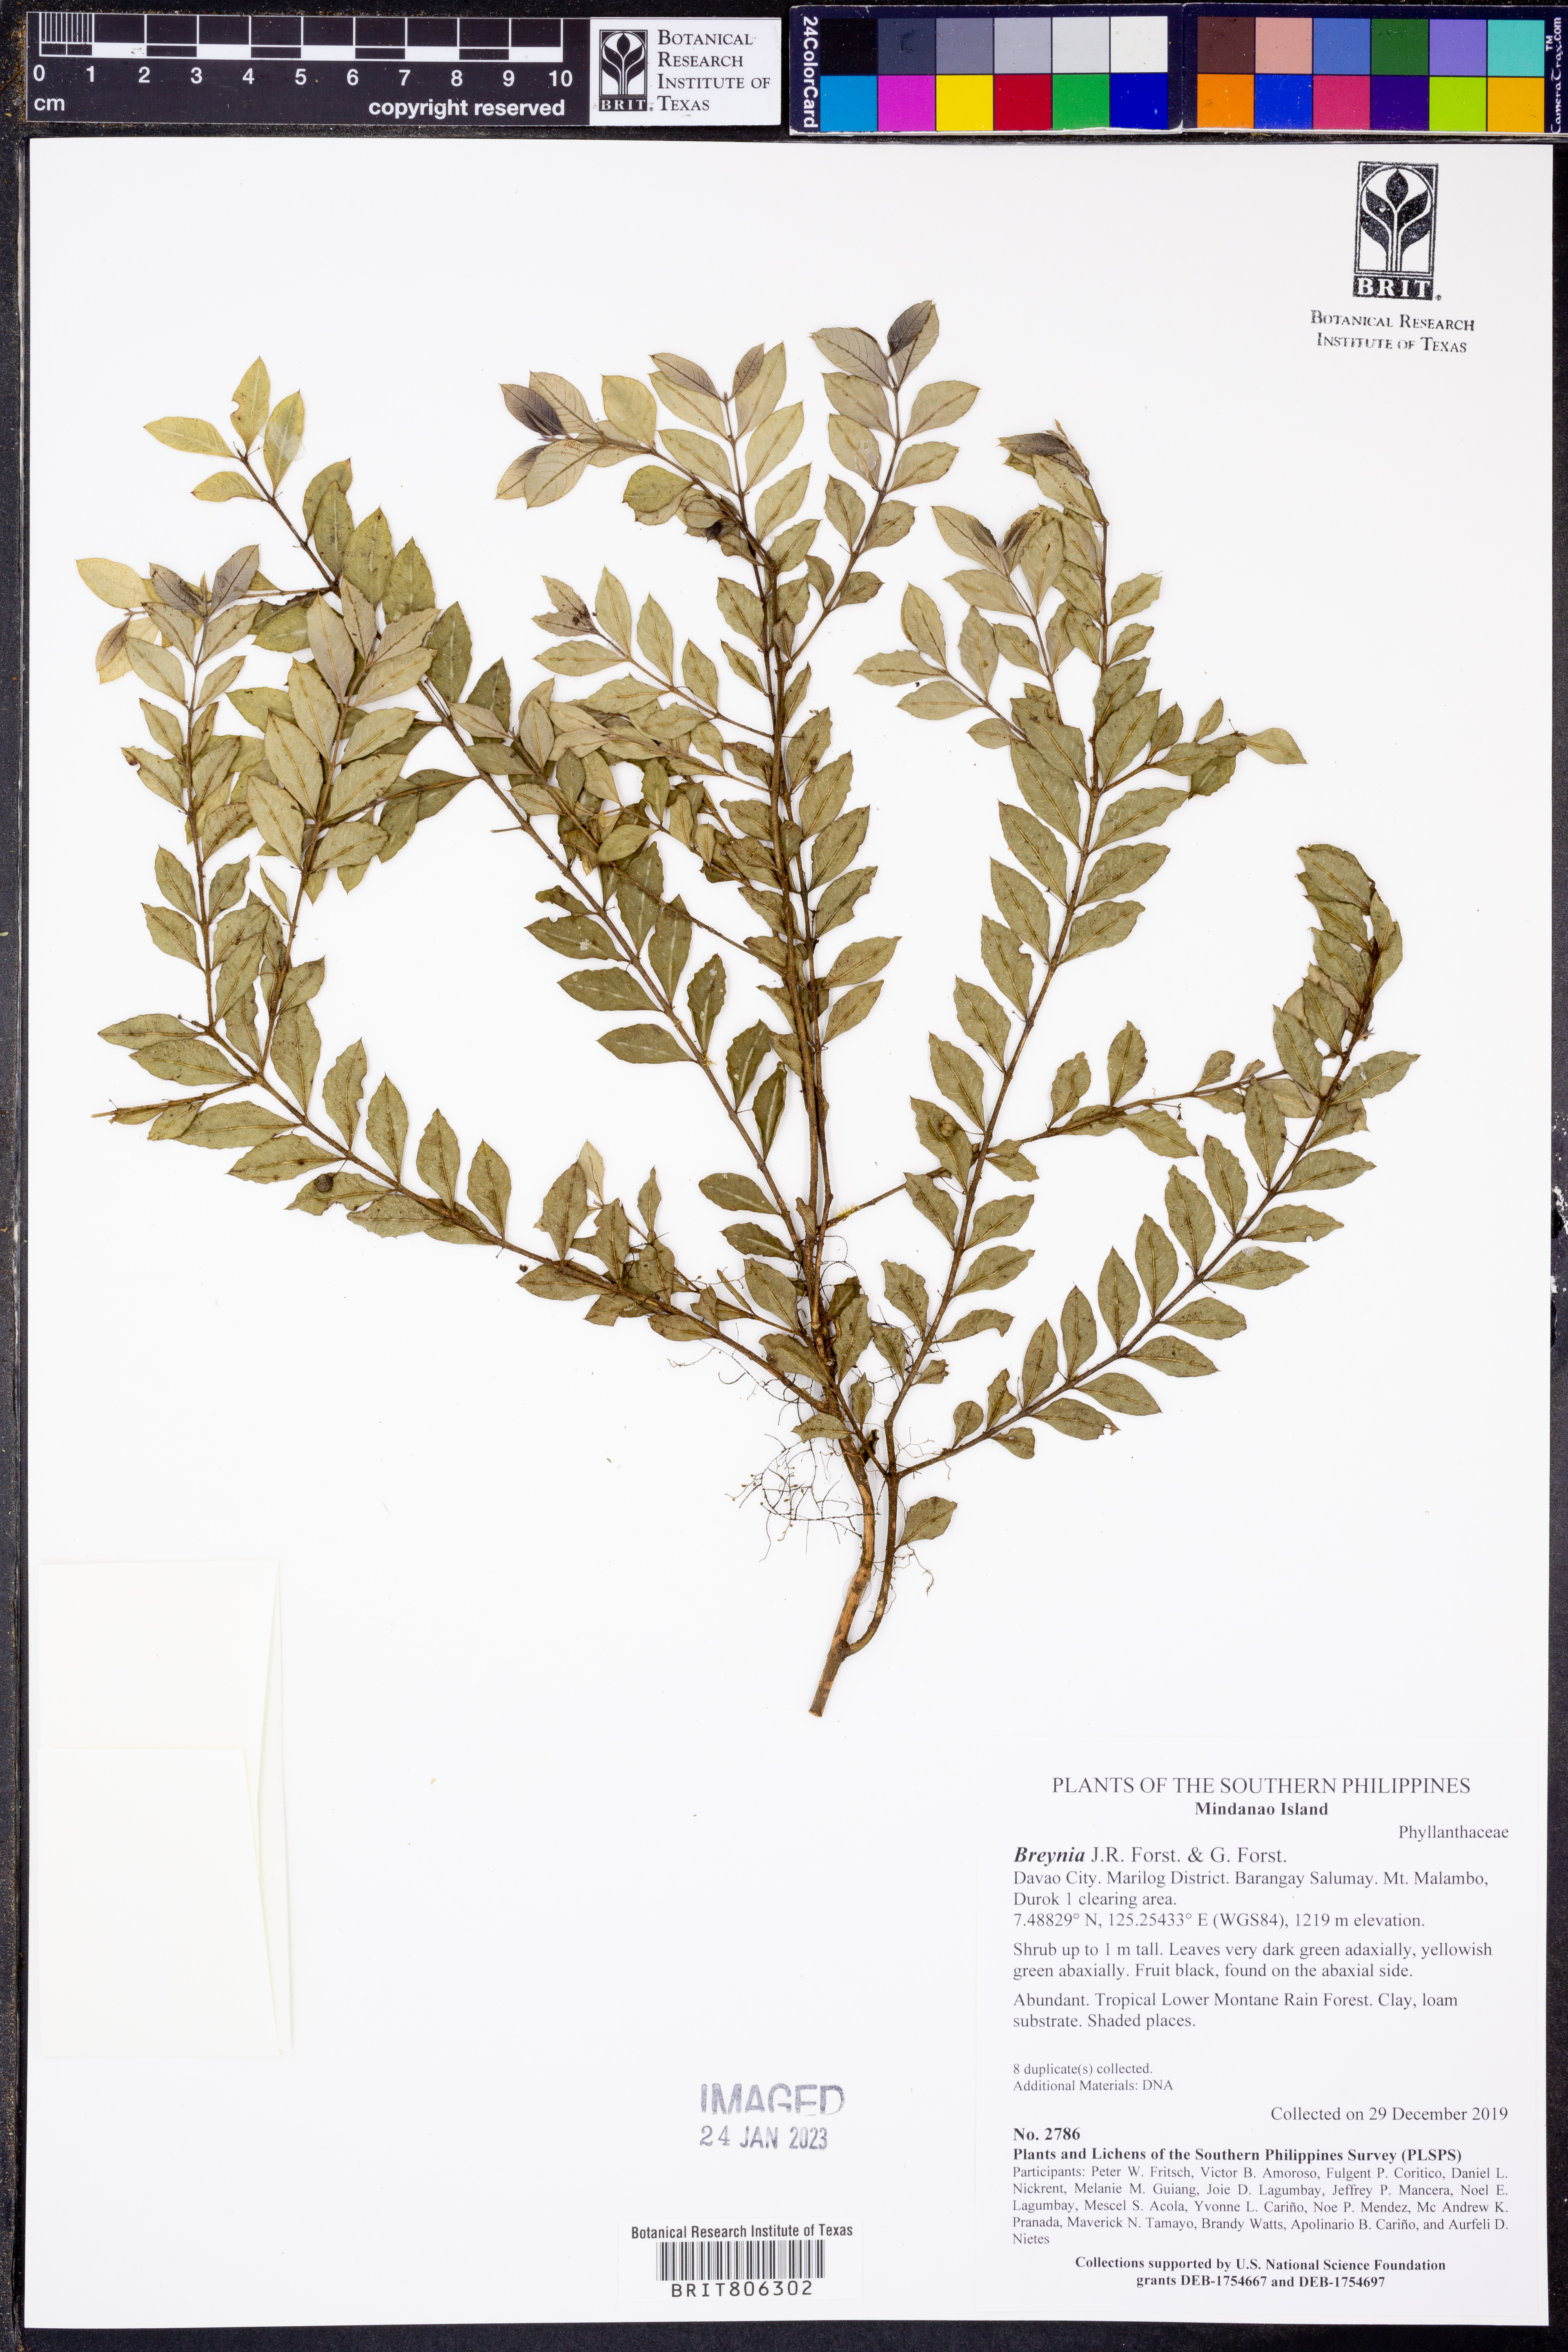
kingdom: Plantae
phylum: Tracheophyta
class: Magnoliopsida
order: Malpighiales
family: Phyllanthaceae
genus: Breynia
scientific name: Breynia
